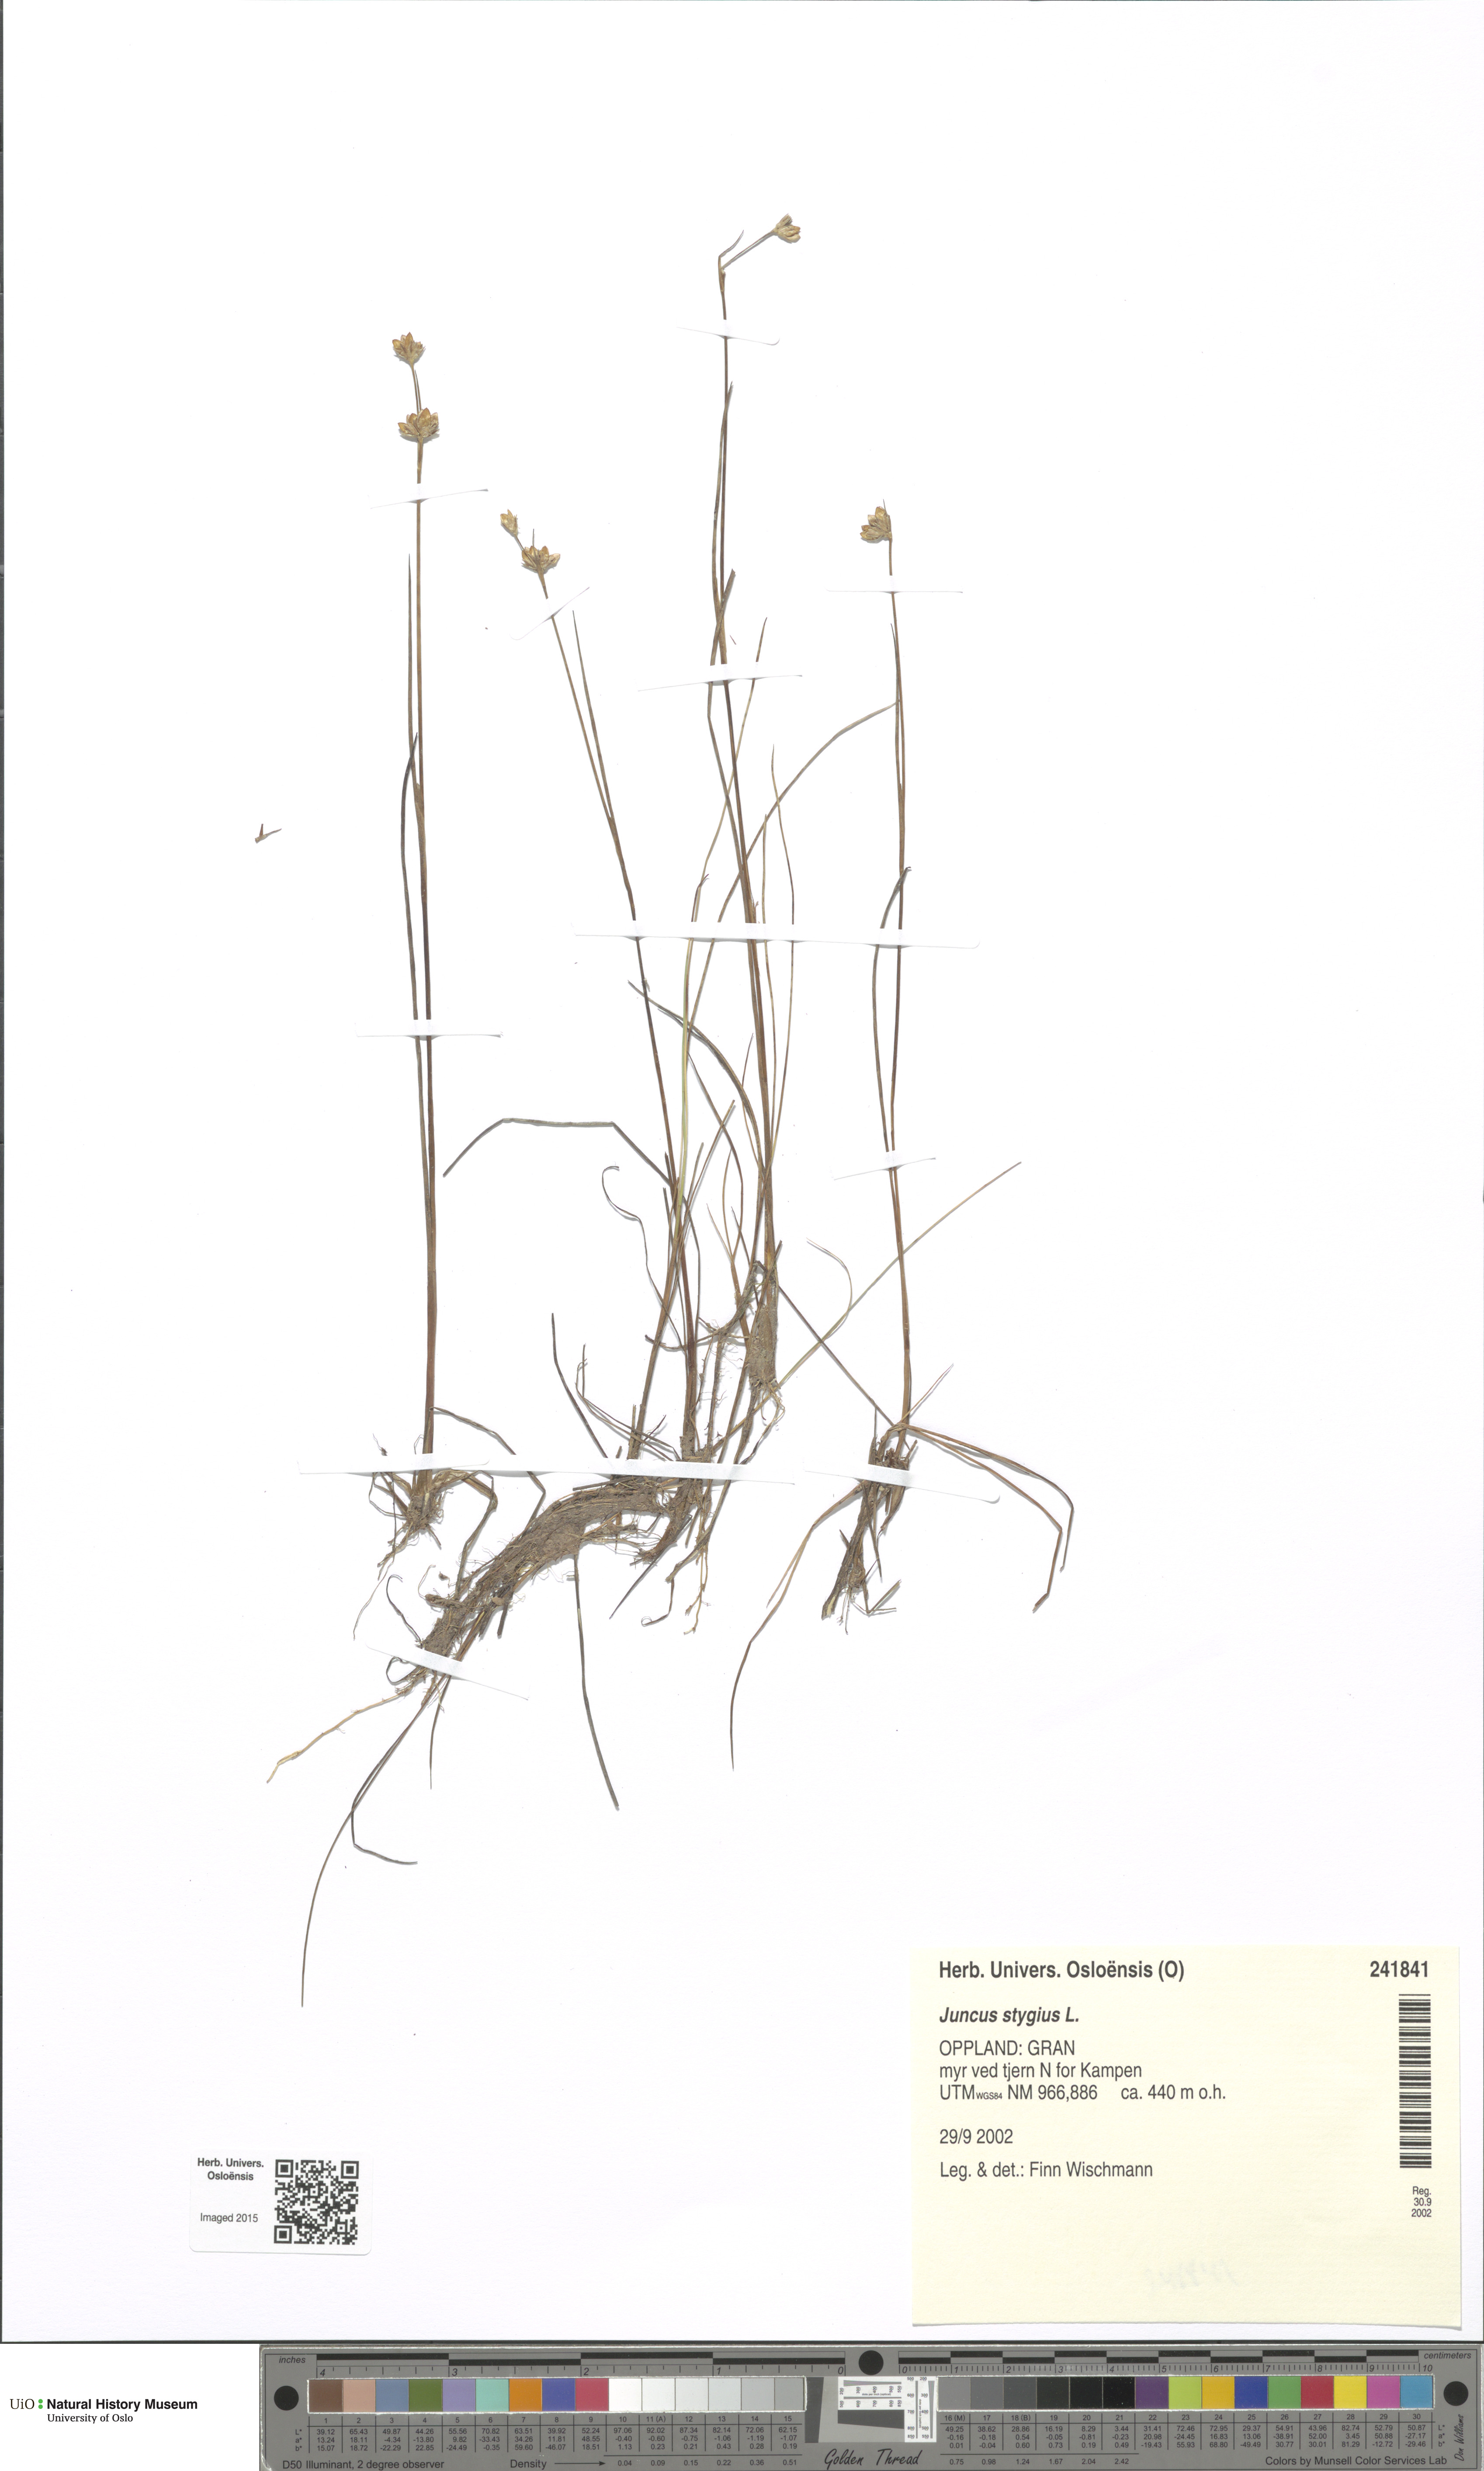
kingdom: Plantae
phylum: Tracheophyta
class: Liliopsida
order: Poales
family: Juncaceae
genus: Juncus
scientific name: Juncus stygius
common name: Bog rush
